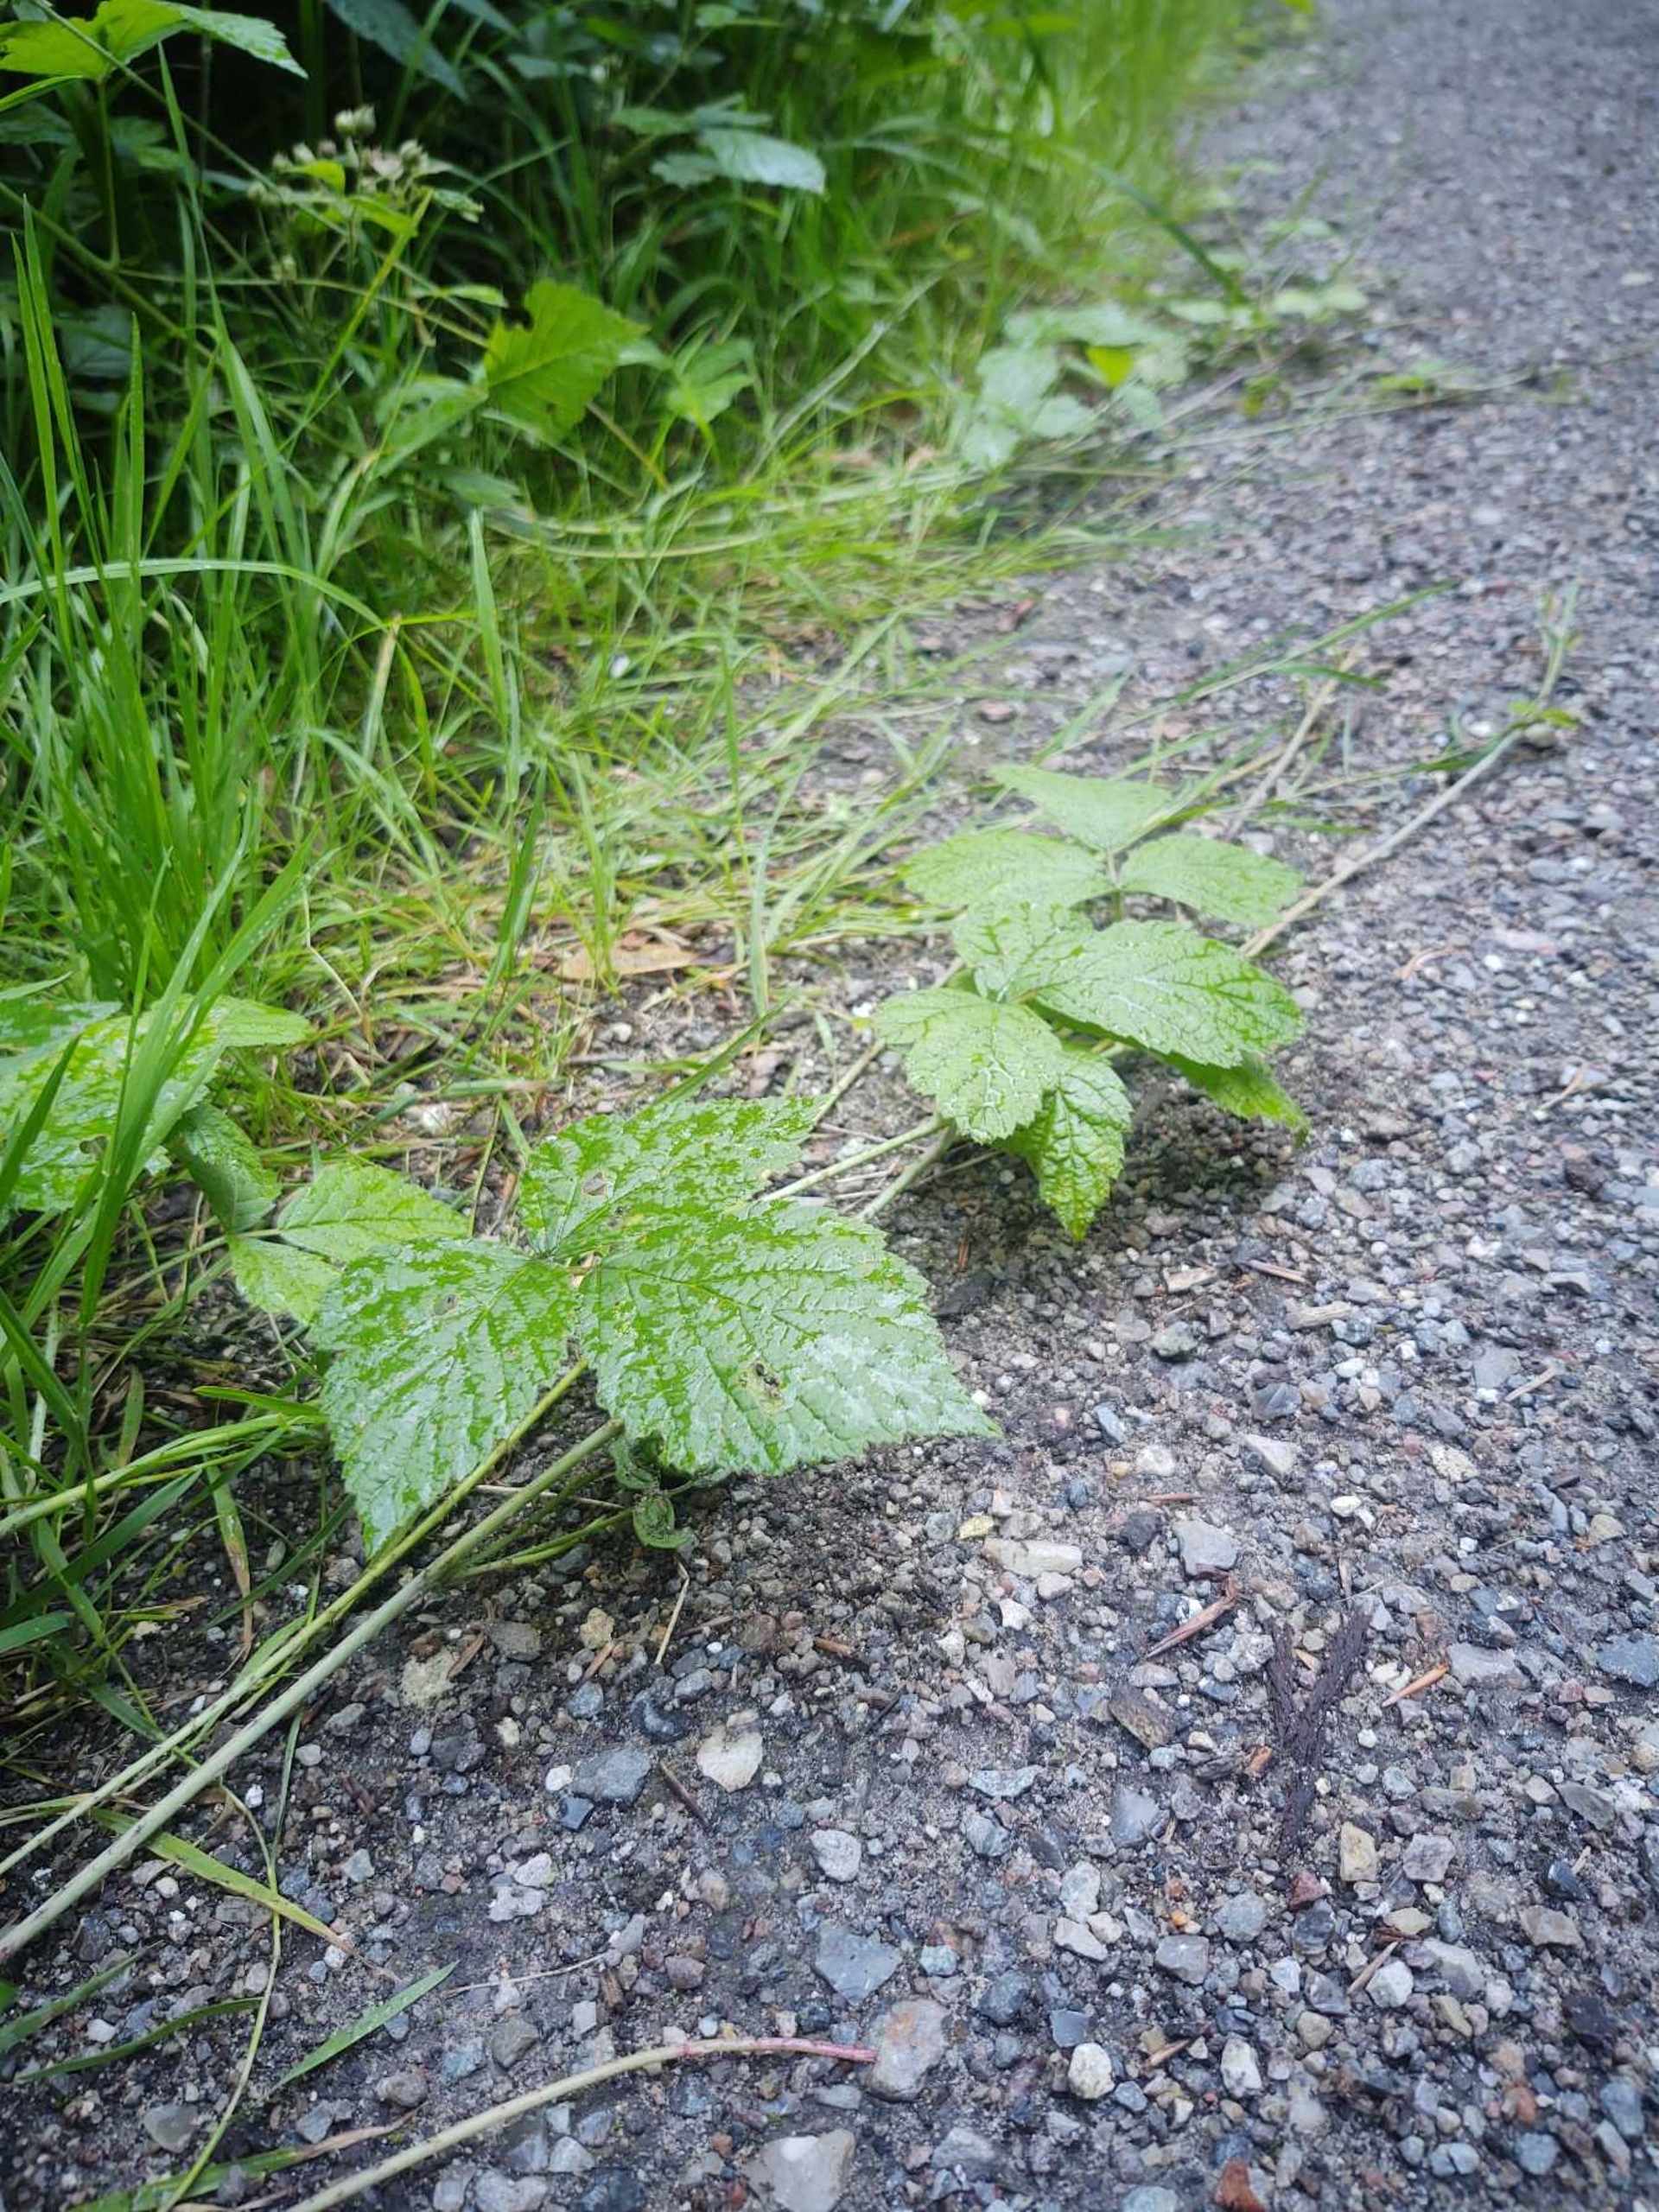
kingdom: Plantae
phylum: Tracheophyta
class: Magnoliopsida
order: Rosales
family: Rosaceae
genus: Rubus
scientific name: Rubus caesius
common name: Korbær
